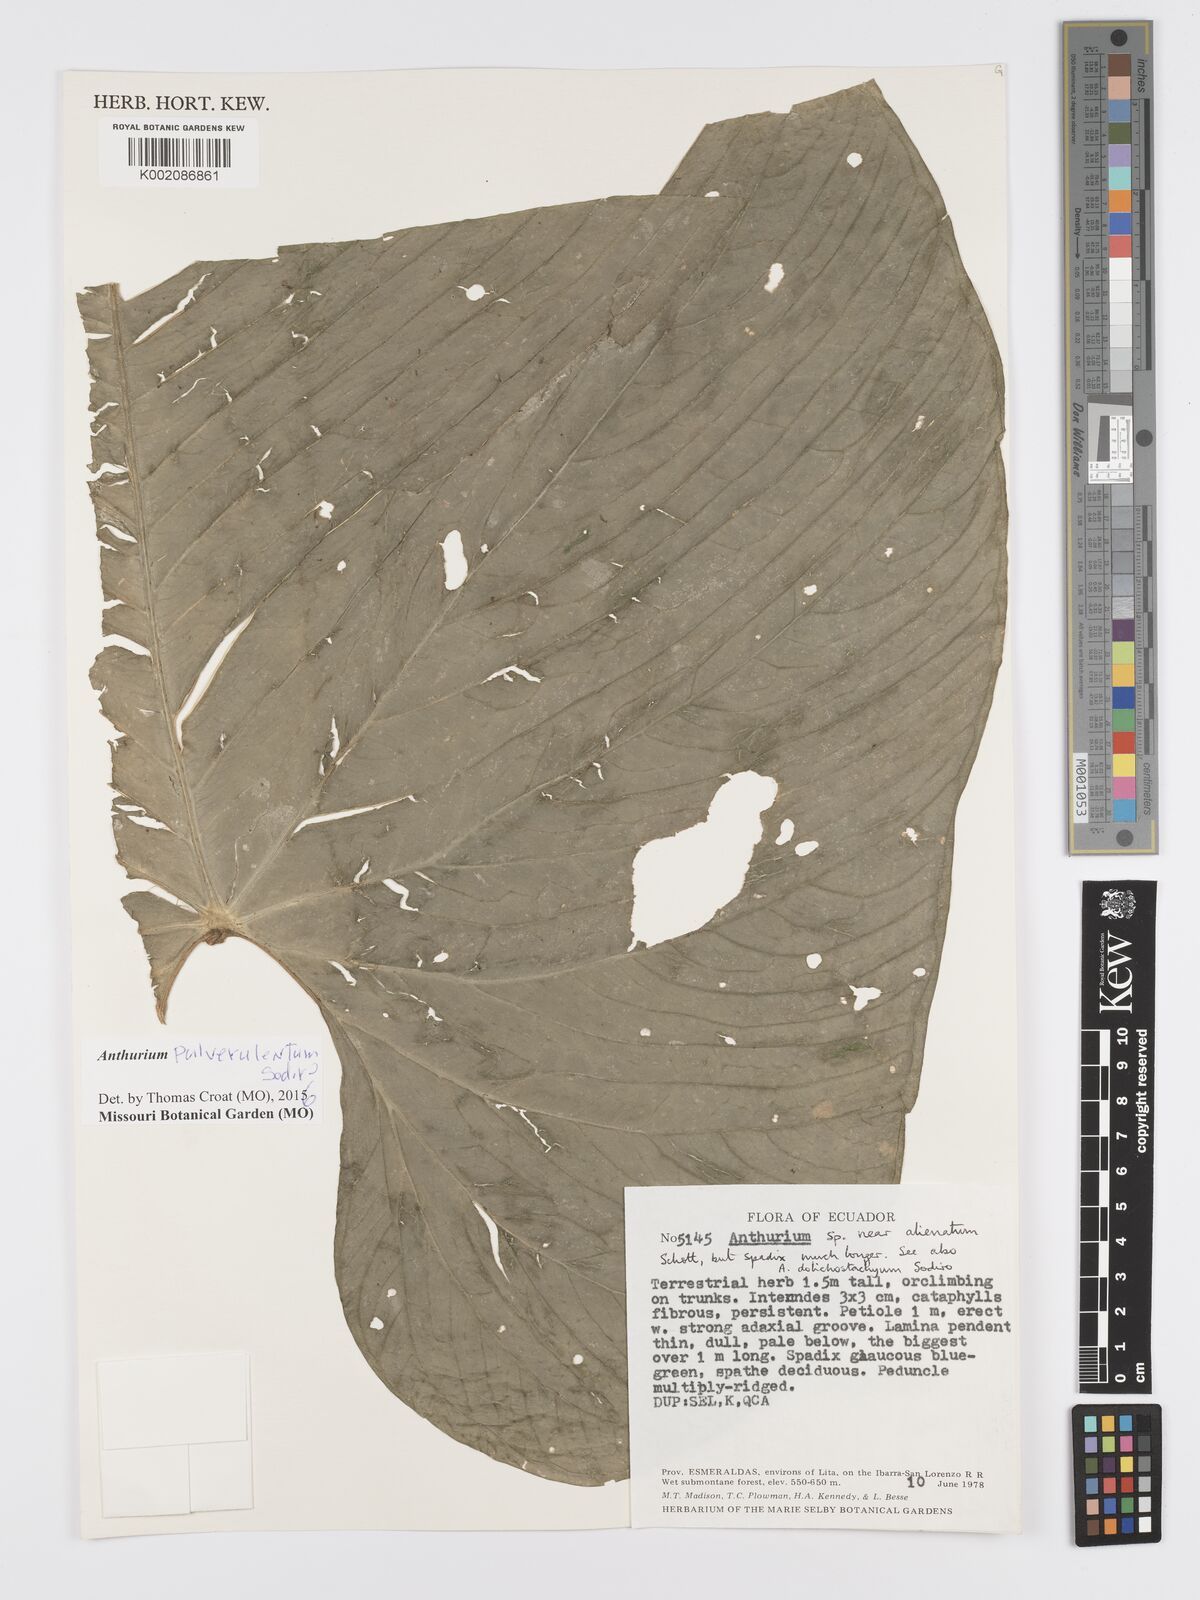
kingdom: Plantae
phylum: Tracheophyta
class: Liliopsida
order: Alismatales
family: Araceae
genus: Anthurium
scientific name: Anthurium pulverulentum
